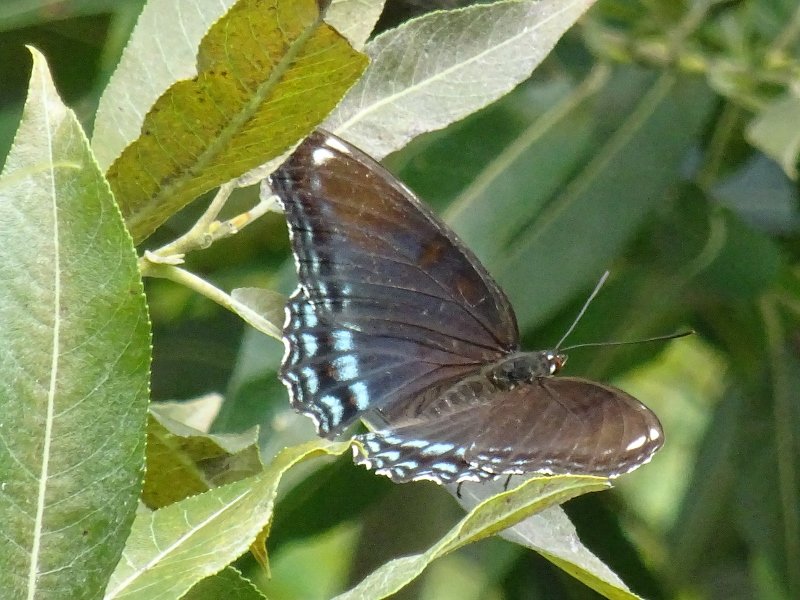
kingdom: Animalia
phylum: Arthropoda
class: Insecta
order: Lepidoptera
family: Nymphalidae
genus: Limenitis
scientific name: Limenitis astyanax
